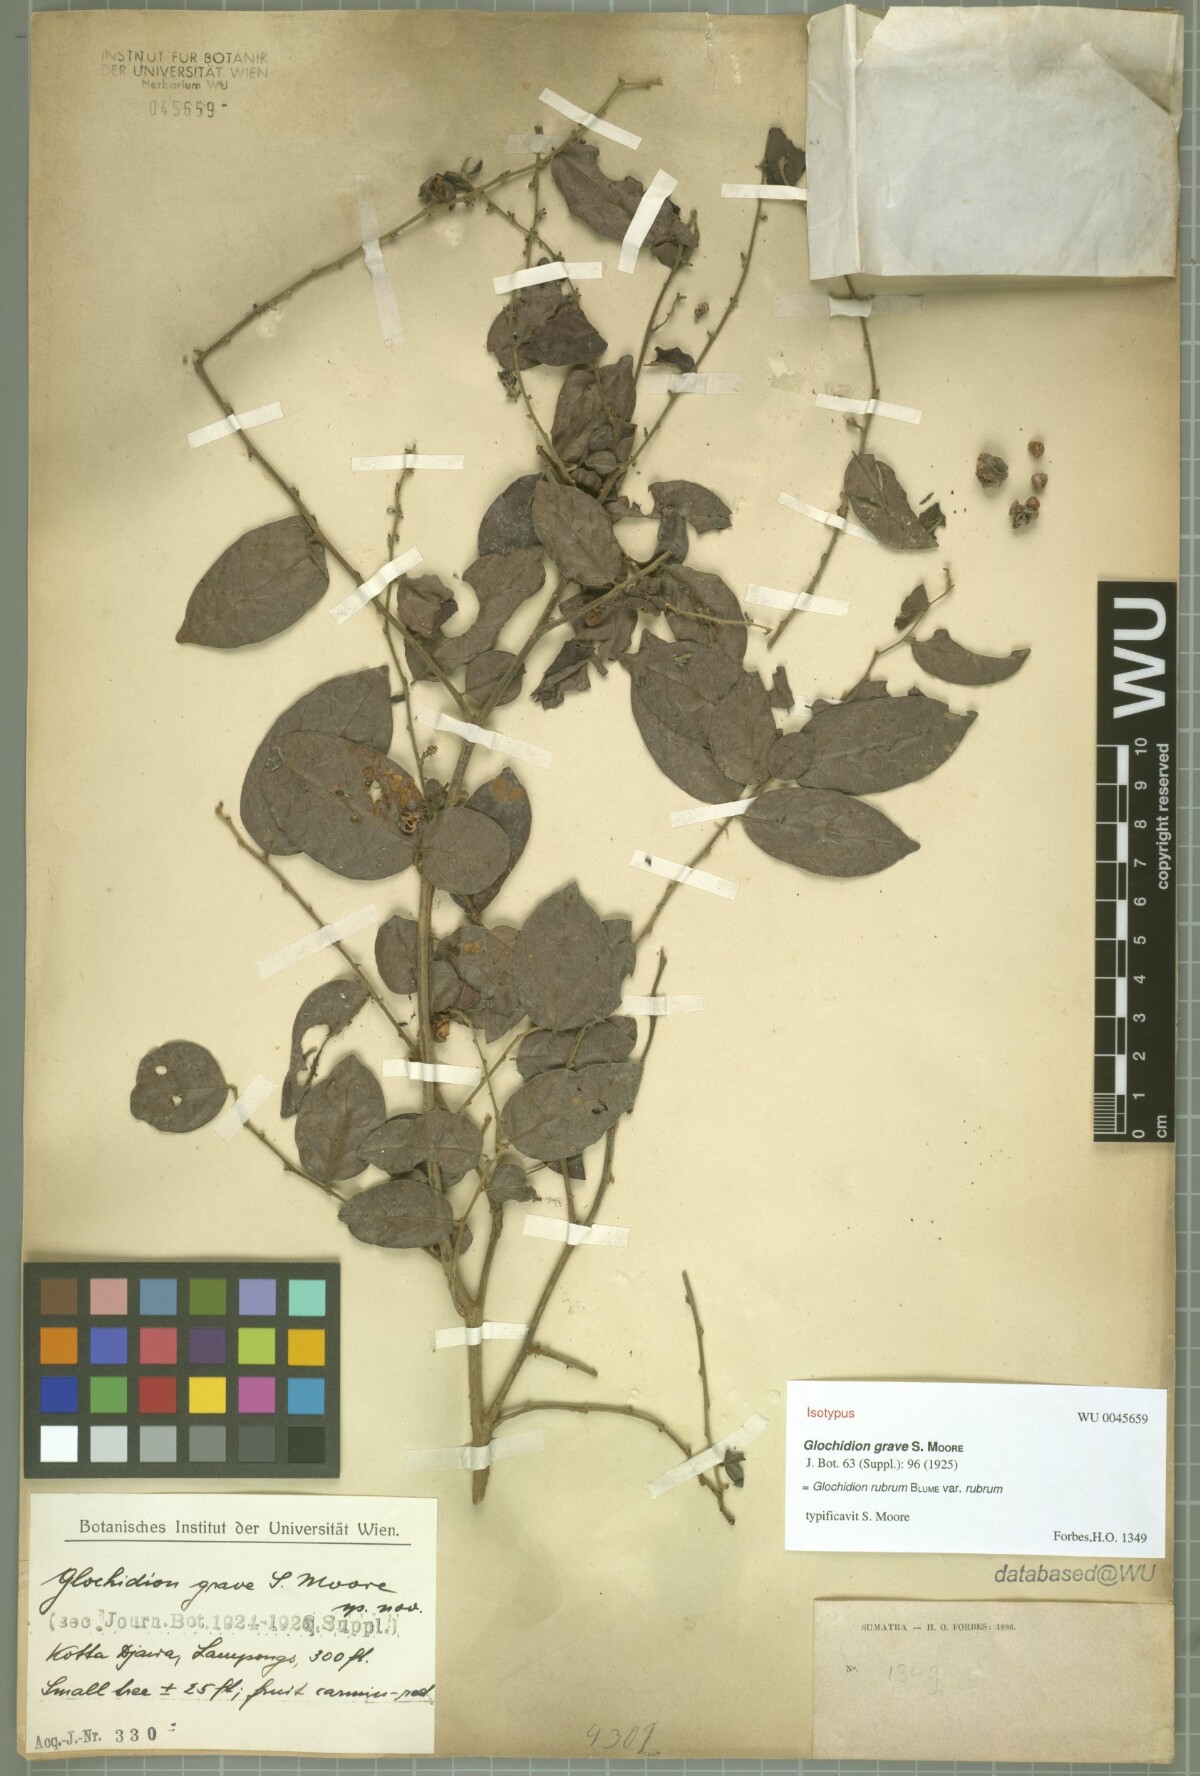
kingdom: Plantae
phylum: Tracheophyta
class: Magnoliopsida
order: Malpighiales
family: Phyllanthaceae
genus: Glochidion
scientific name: Glochidion rubrum
